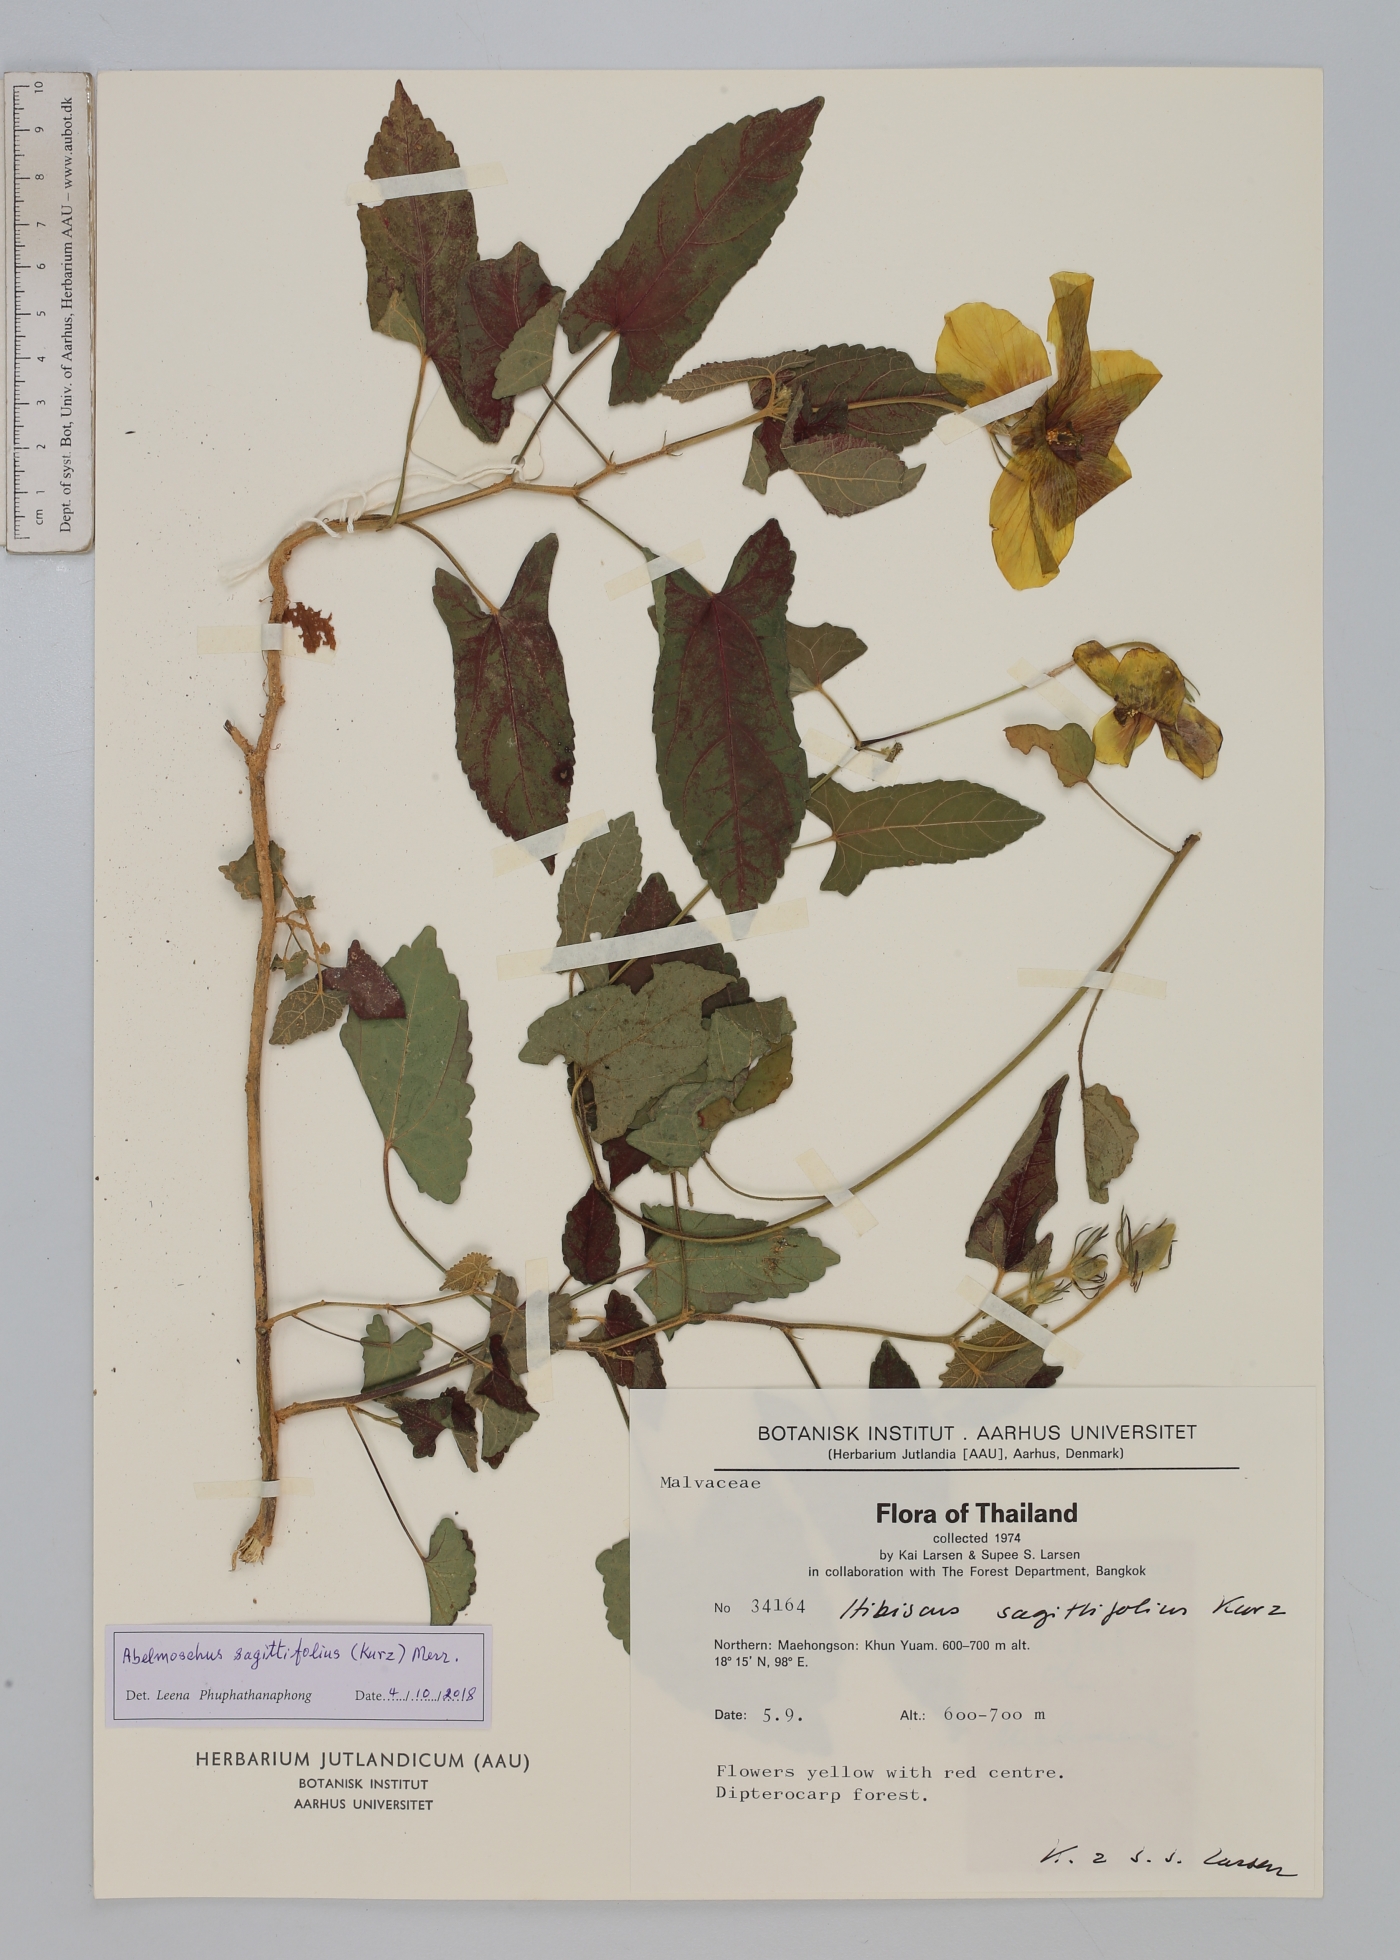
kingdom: Plantae
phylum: Tracheophyta
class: Magnoliopsida
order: Malvales
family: Malvaceae
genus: Abelmoschus
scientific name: Abelmoschus sagittifolius
